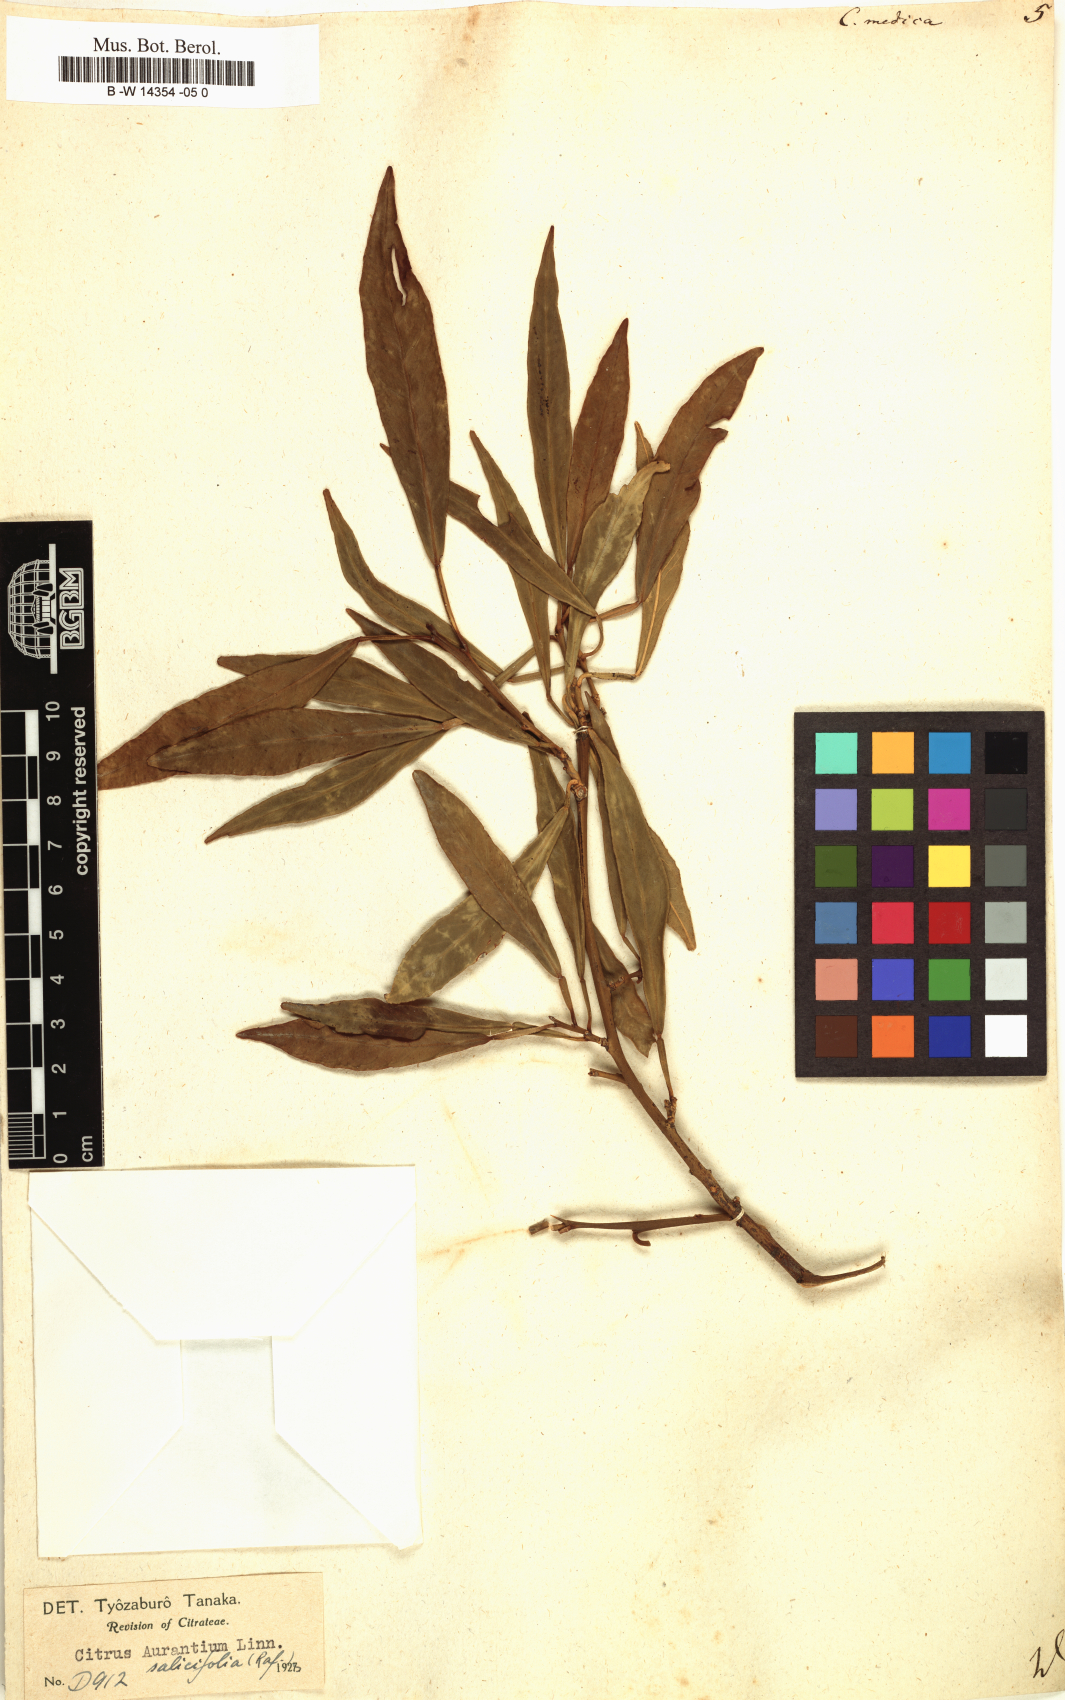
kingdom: Plantae
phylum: Tracheophyta
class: Magnoliopsida
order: Sapindales
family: Rutaceae
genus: Citrus
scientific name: Citrus medica
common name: Citron
